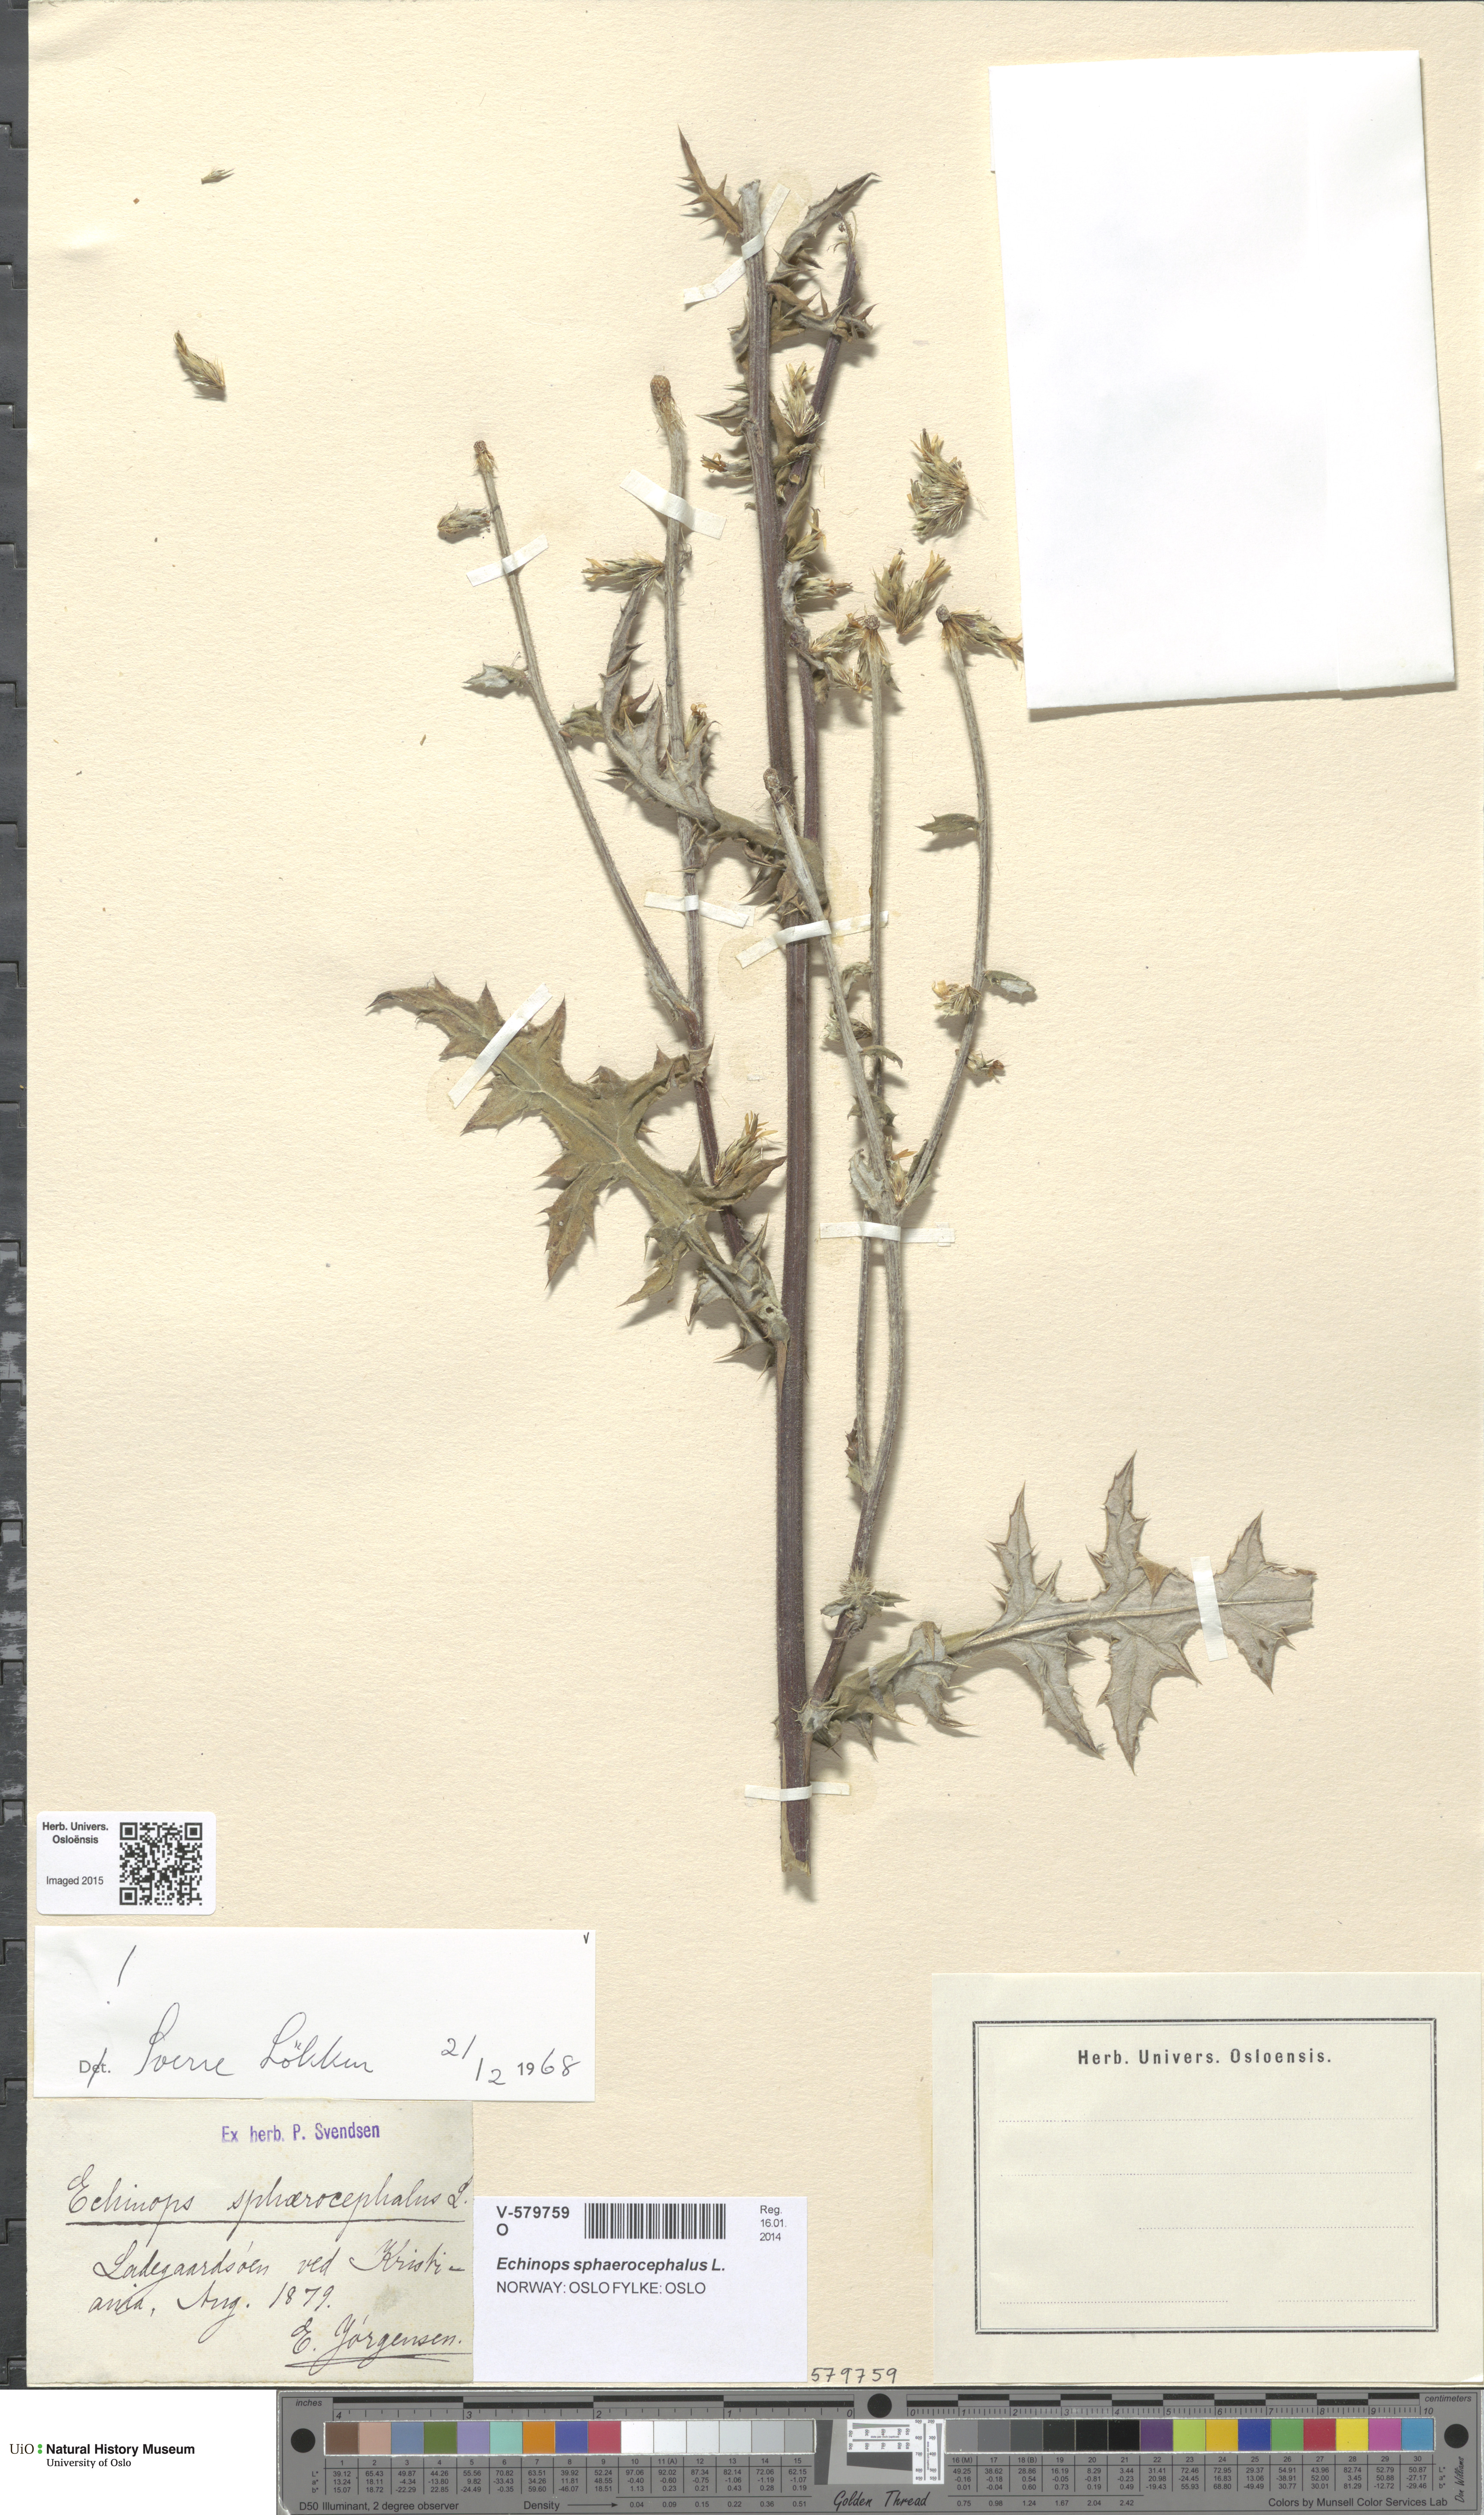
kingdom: Plantae
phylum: Tracheophyta
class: Magnoliopsida
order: Asterales
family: Asteraceae
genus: Echinops
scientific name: Echinops sphaerocephalus
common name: Glandular globe-thistle
